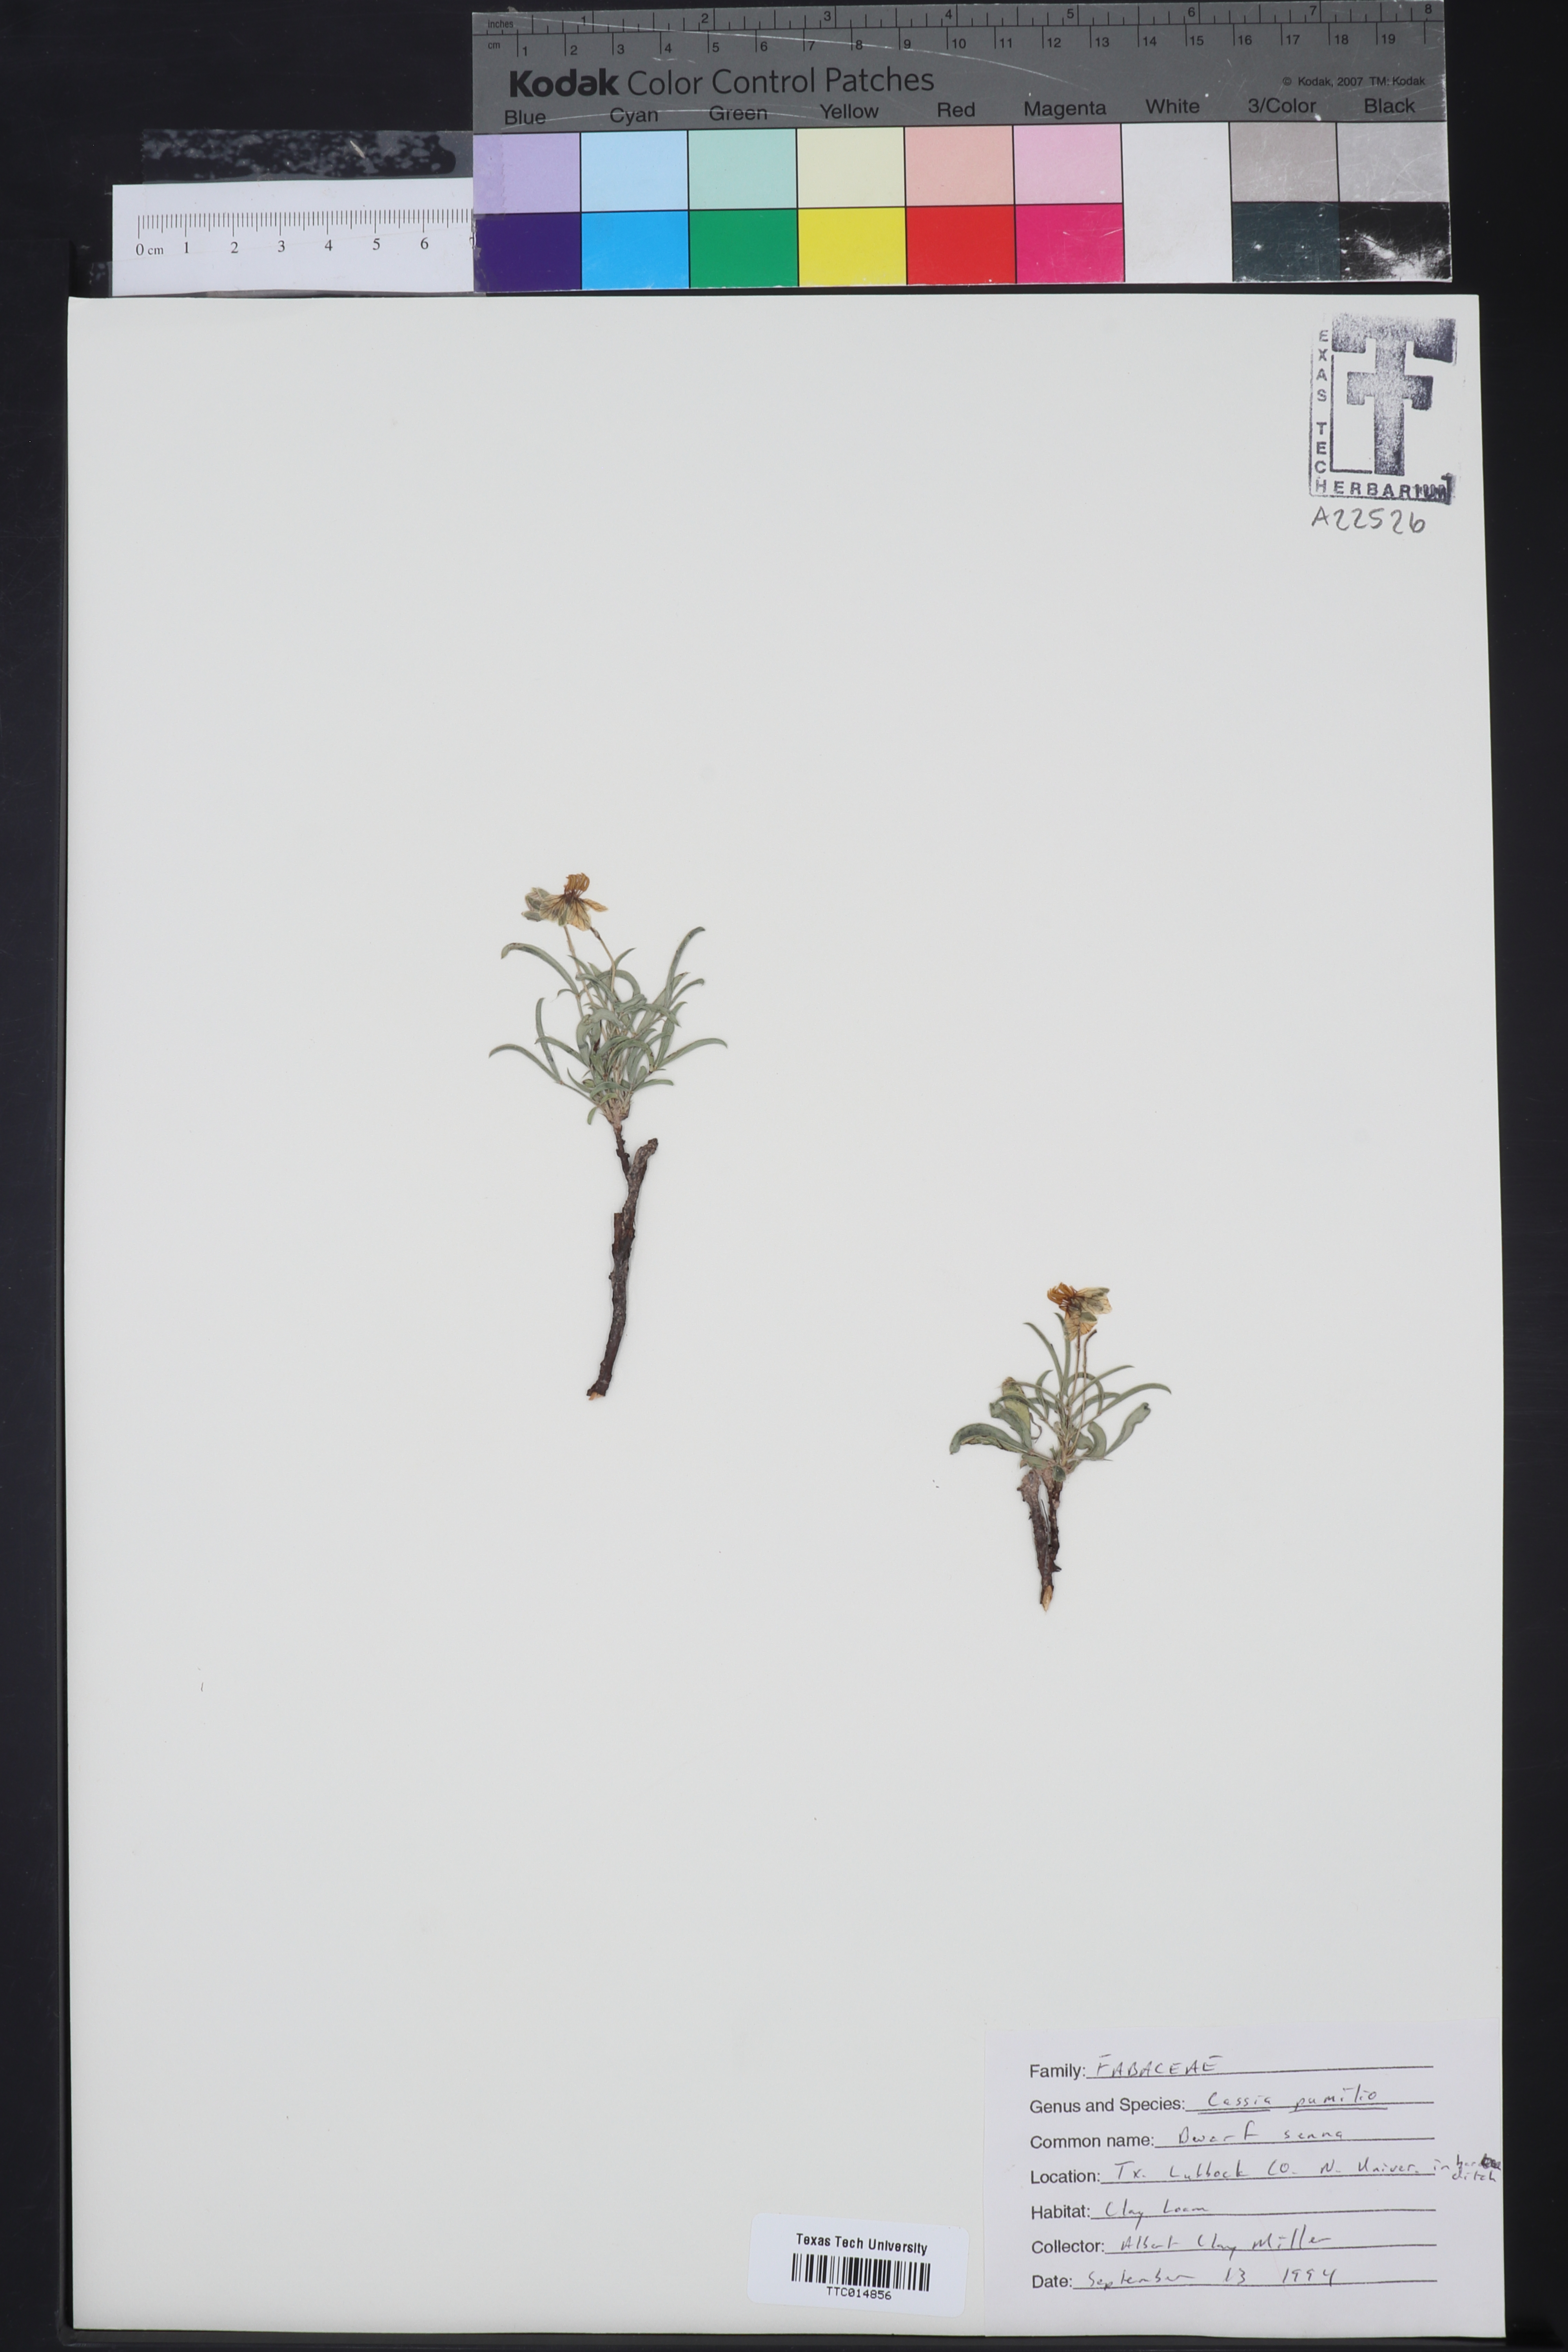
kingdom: Plantae
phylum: Tracheophyta
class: Magnoliopsida
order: Fabales
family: Fabaceae
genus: Senna
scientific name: Senna pumilio
